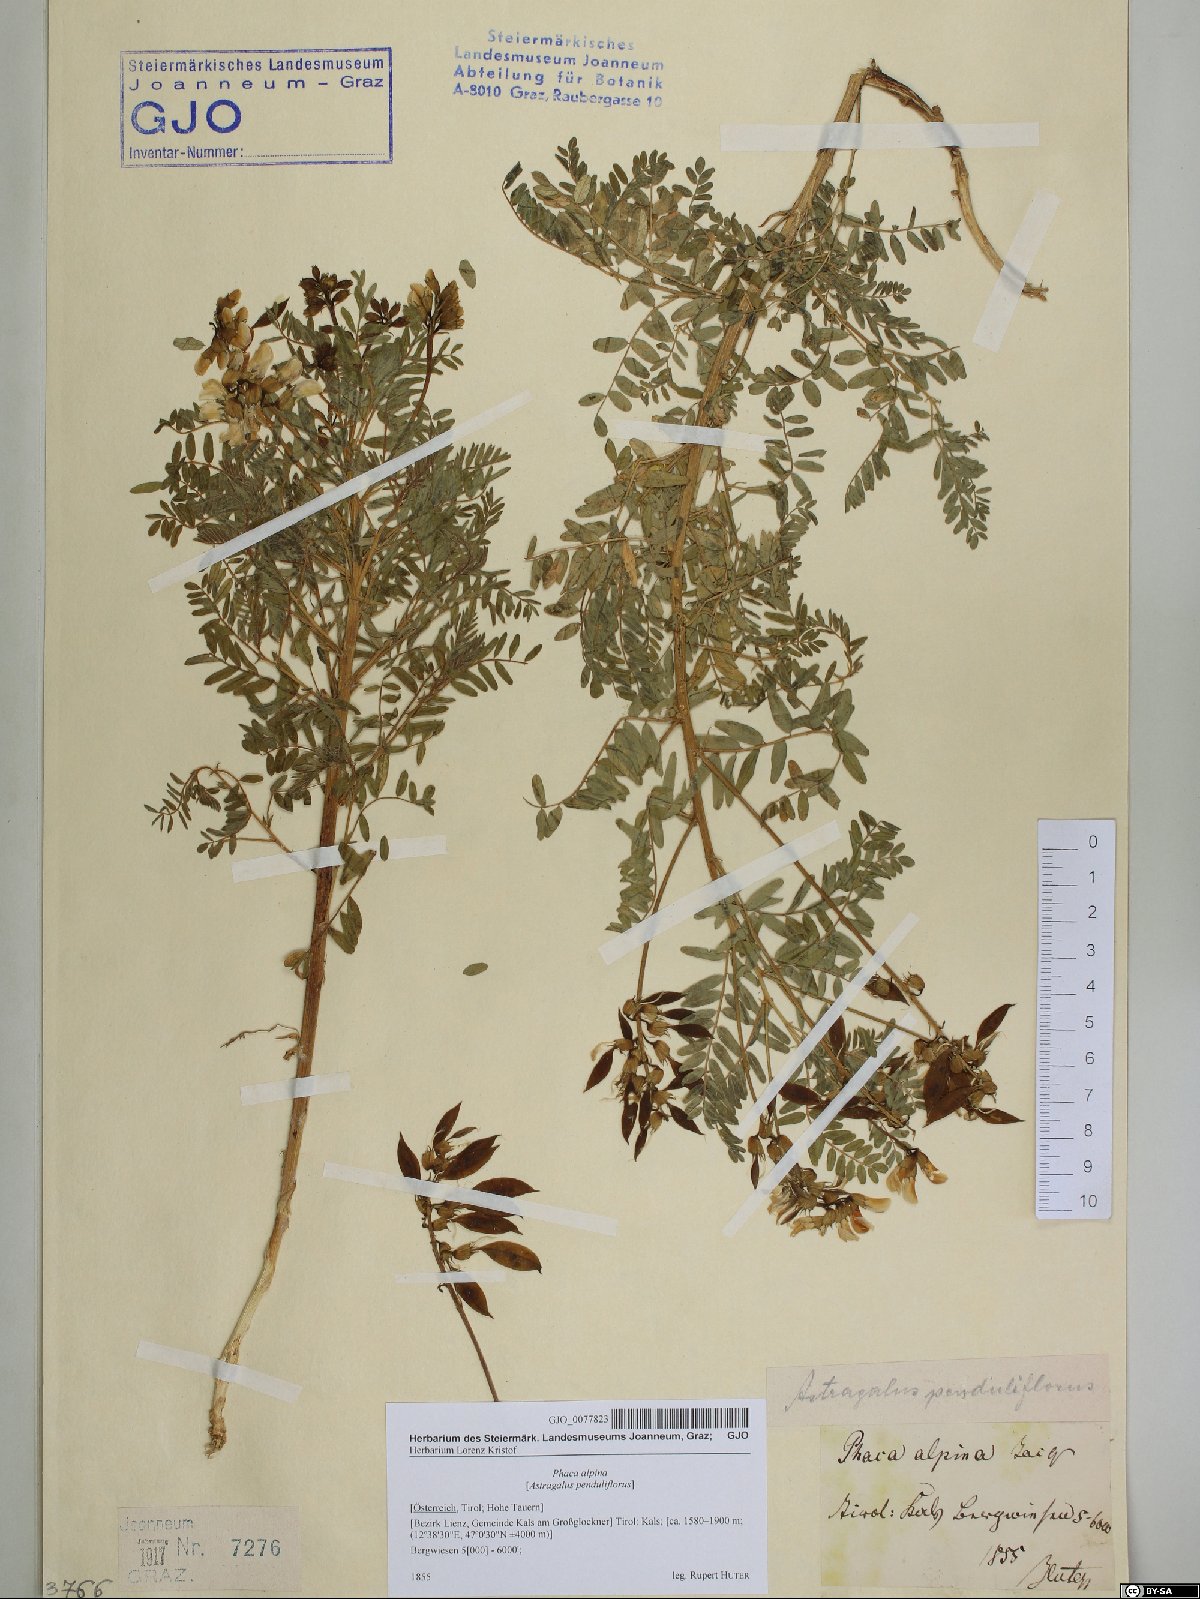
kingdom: Plantae
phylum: Tracheophyta
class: Magnoliopsida
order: Fabales
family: Fabaceae
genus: Astragalus
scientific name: Astragalus penduliflorus
